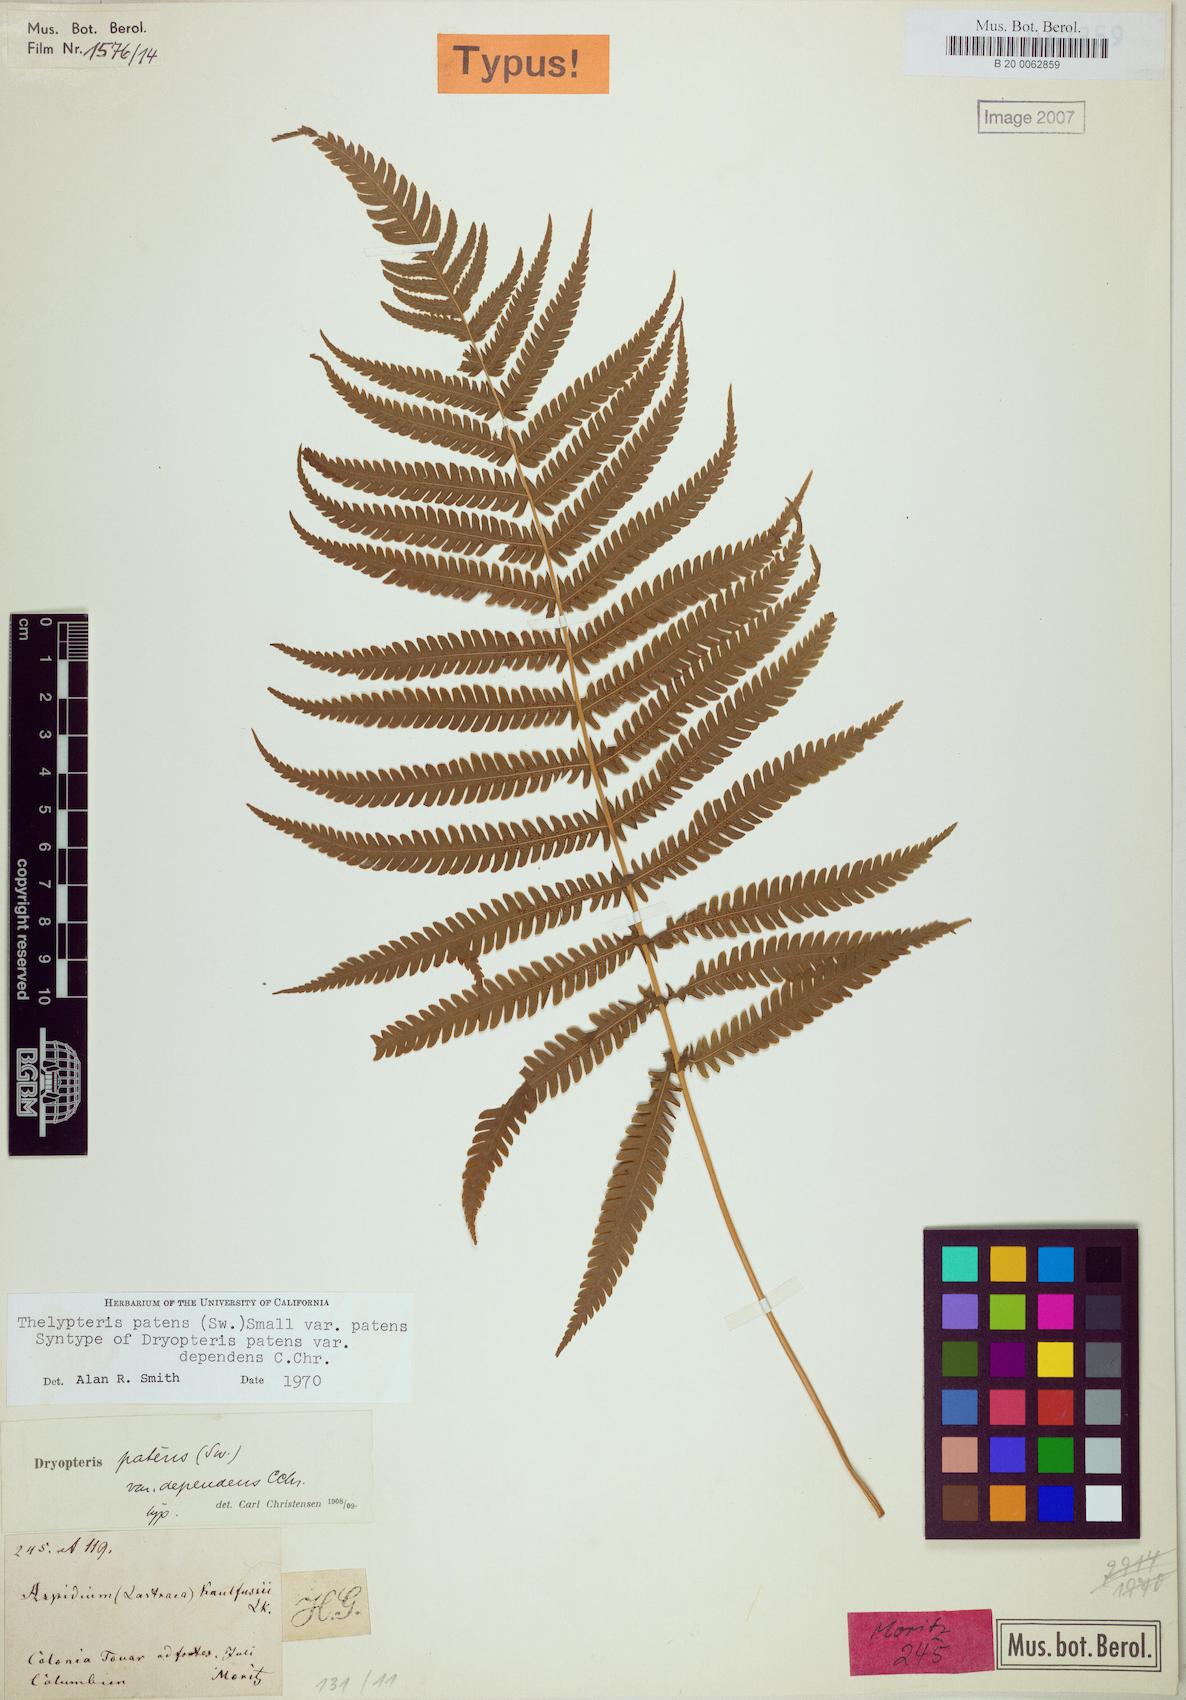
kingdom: Plantae
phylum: Tracheophyta
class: Polypodiopsida
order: Polypodiales
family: Thelypteridaceae
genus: Pelazoneuron
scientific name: Pelazoneuron patens
